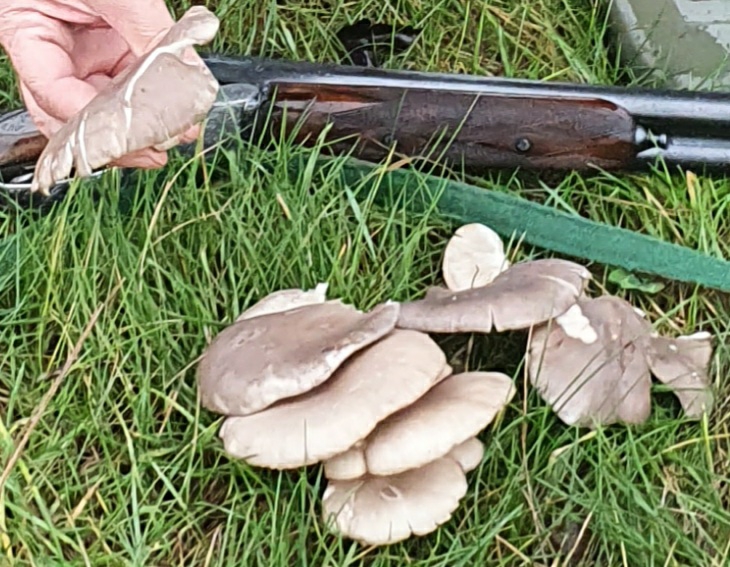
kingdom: Fungi
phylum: Basidiomycota
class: Agaricomycetes
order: Agaricales
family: Pleurotaceae
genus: Pleurotus
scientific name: Pleurotus ostreatus
